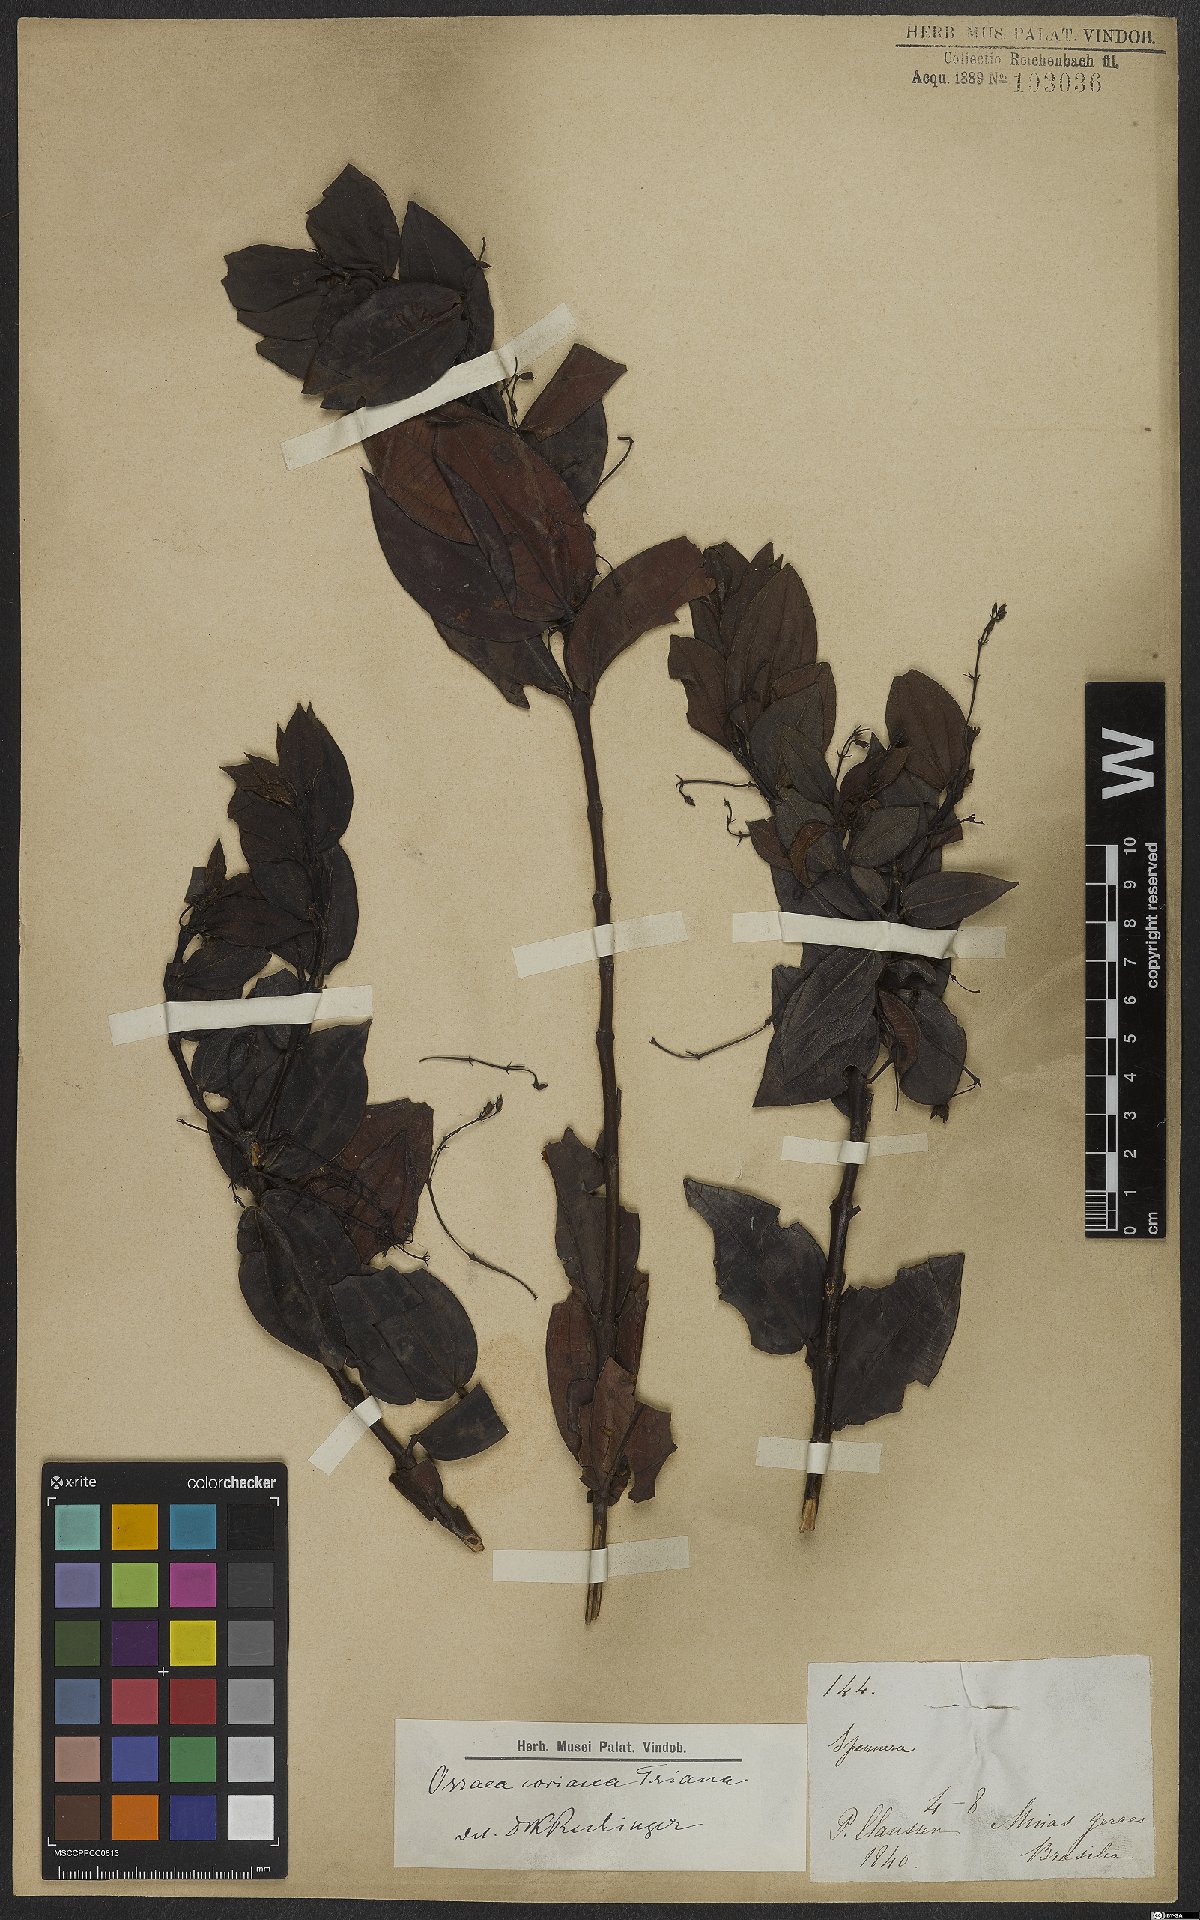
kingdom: Plantae
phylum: Tracheophyta
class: Magnoliopsida
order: Myrtales
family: Melastomataceae
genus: Miconia
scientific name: Miconia leabiscoriacea
